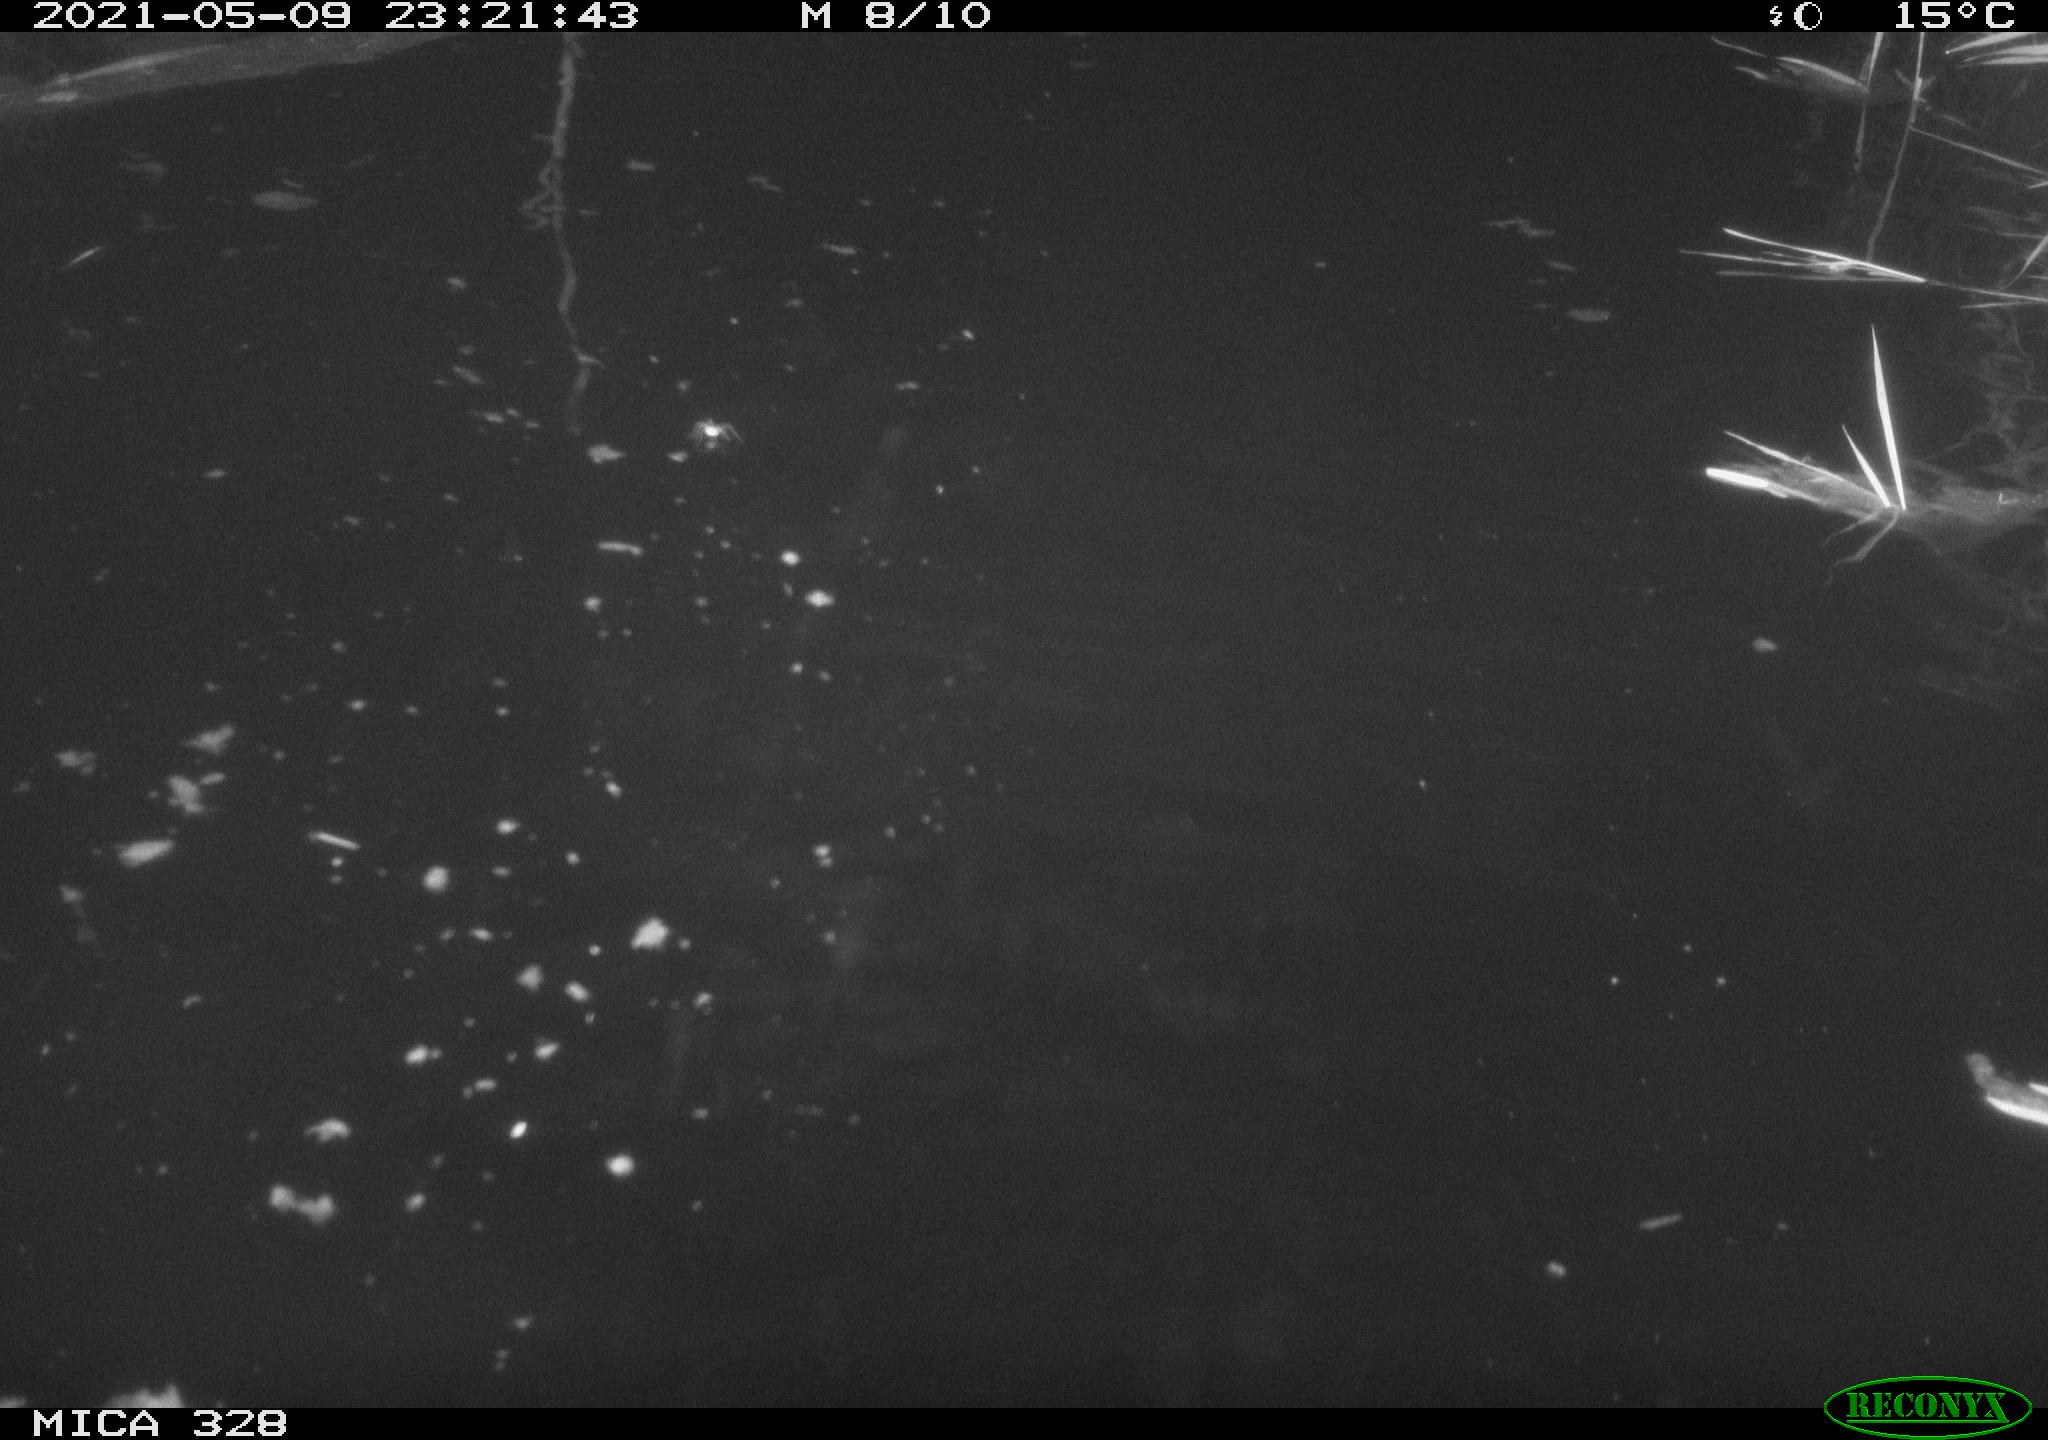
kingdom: Animalia
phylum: Chordata
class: Mammalia
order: Rodentia
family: Cricetidae
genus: Ondatra
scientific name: Ondatra zibethicus
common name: Muskrat
